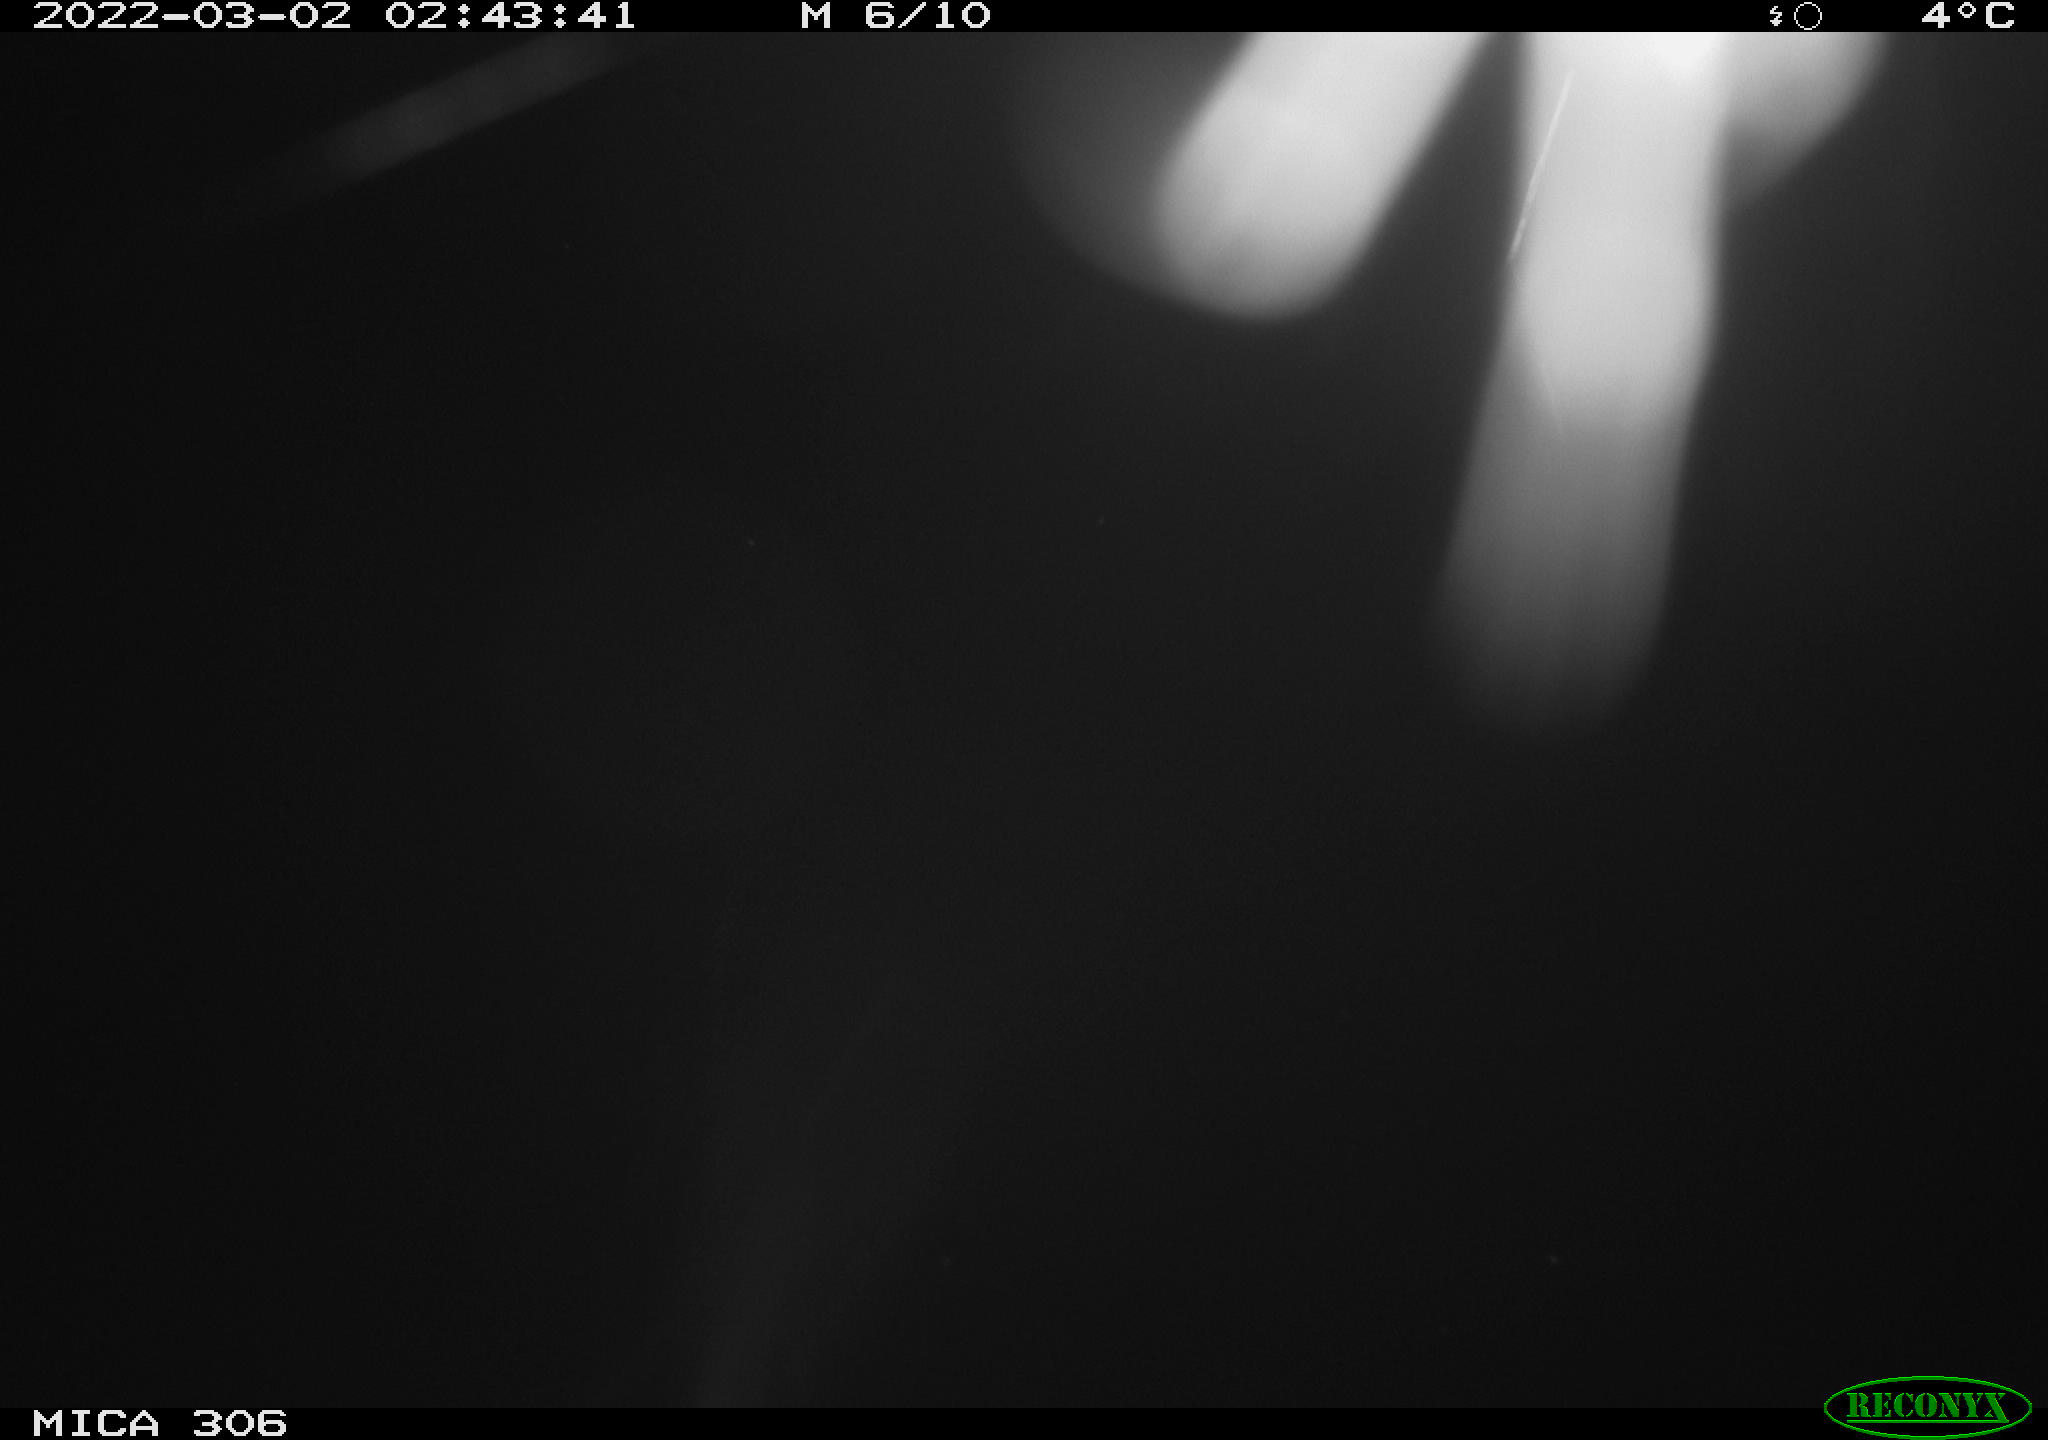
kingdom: Animalia
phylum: Chordata
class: Mammalia
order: Rodentia
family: Cricetidae
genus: Ondatra
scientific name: Ondatra zibethicus
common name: Muskrat
